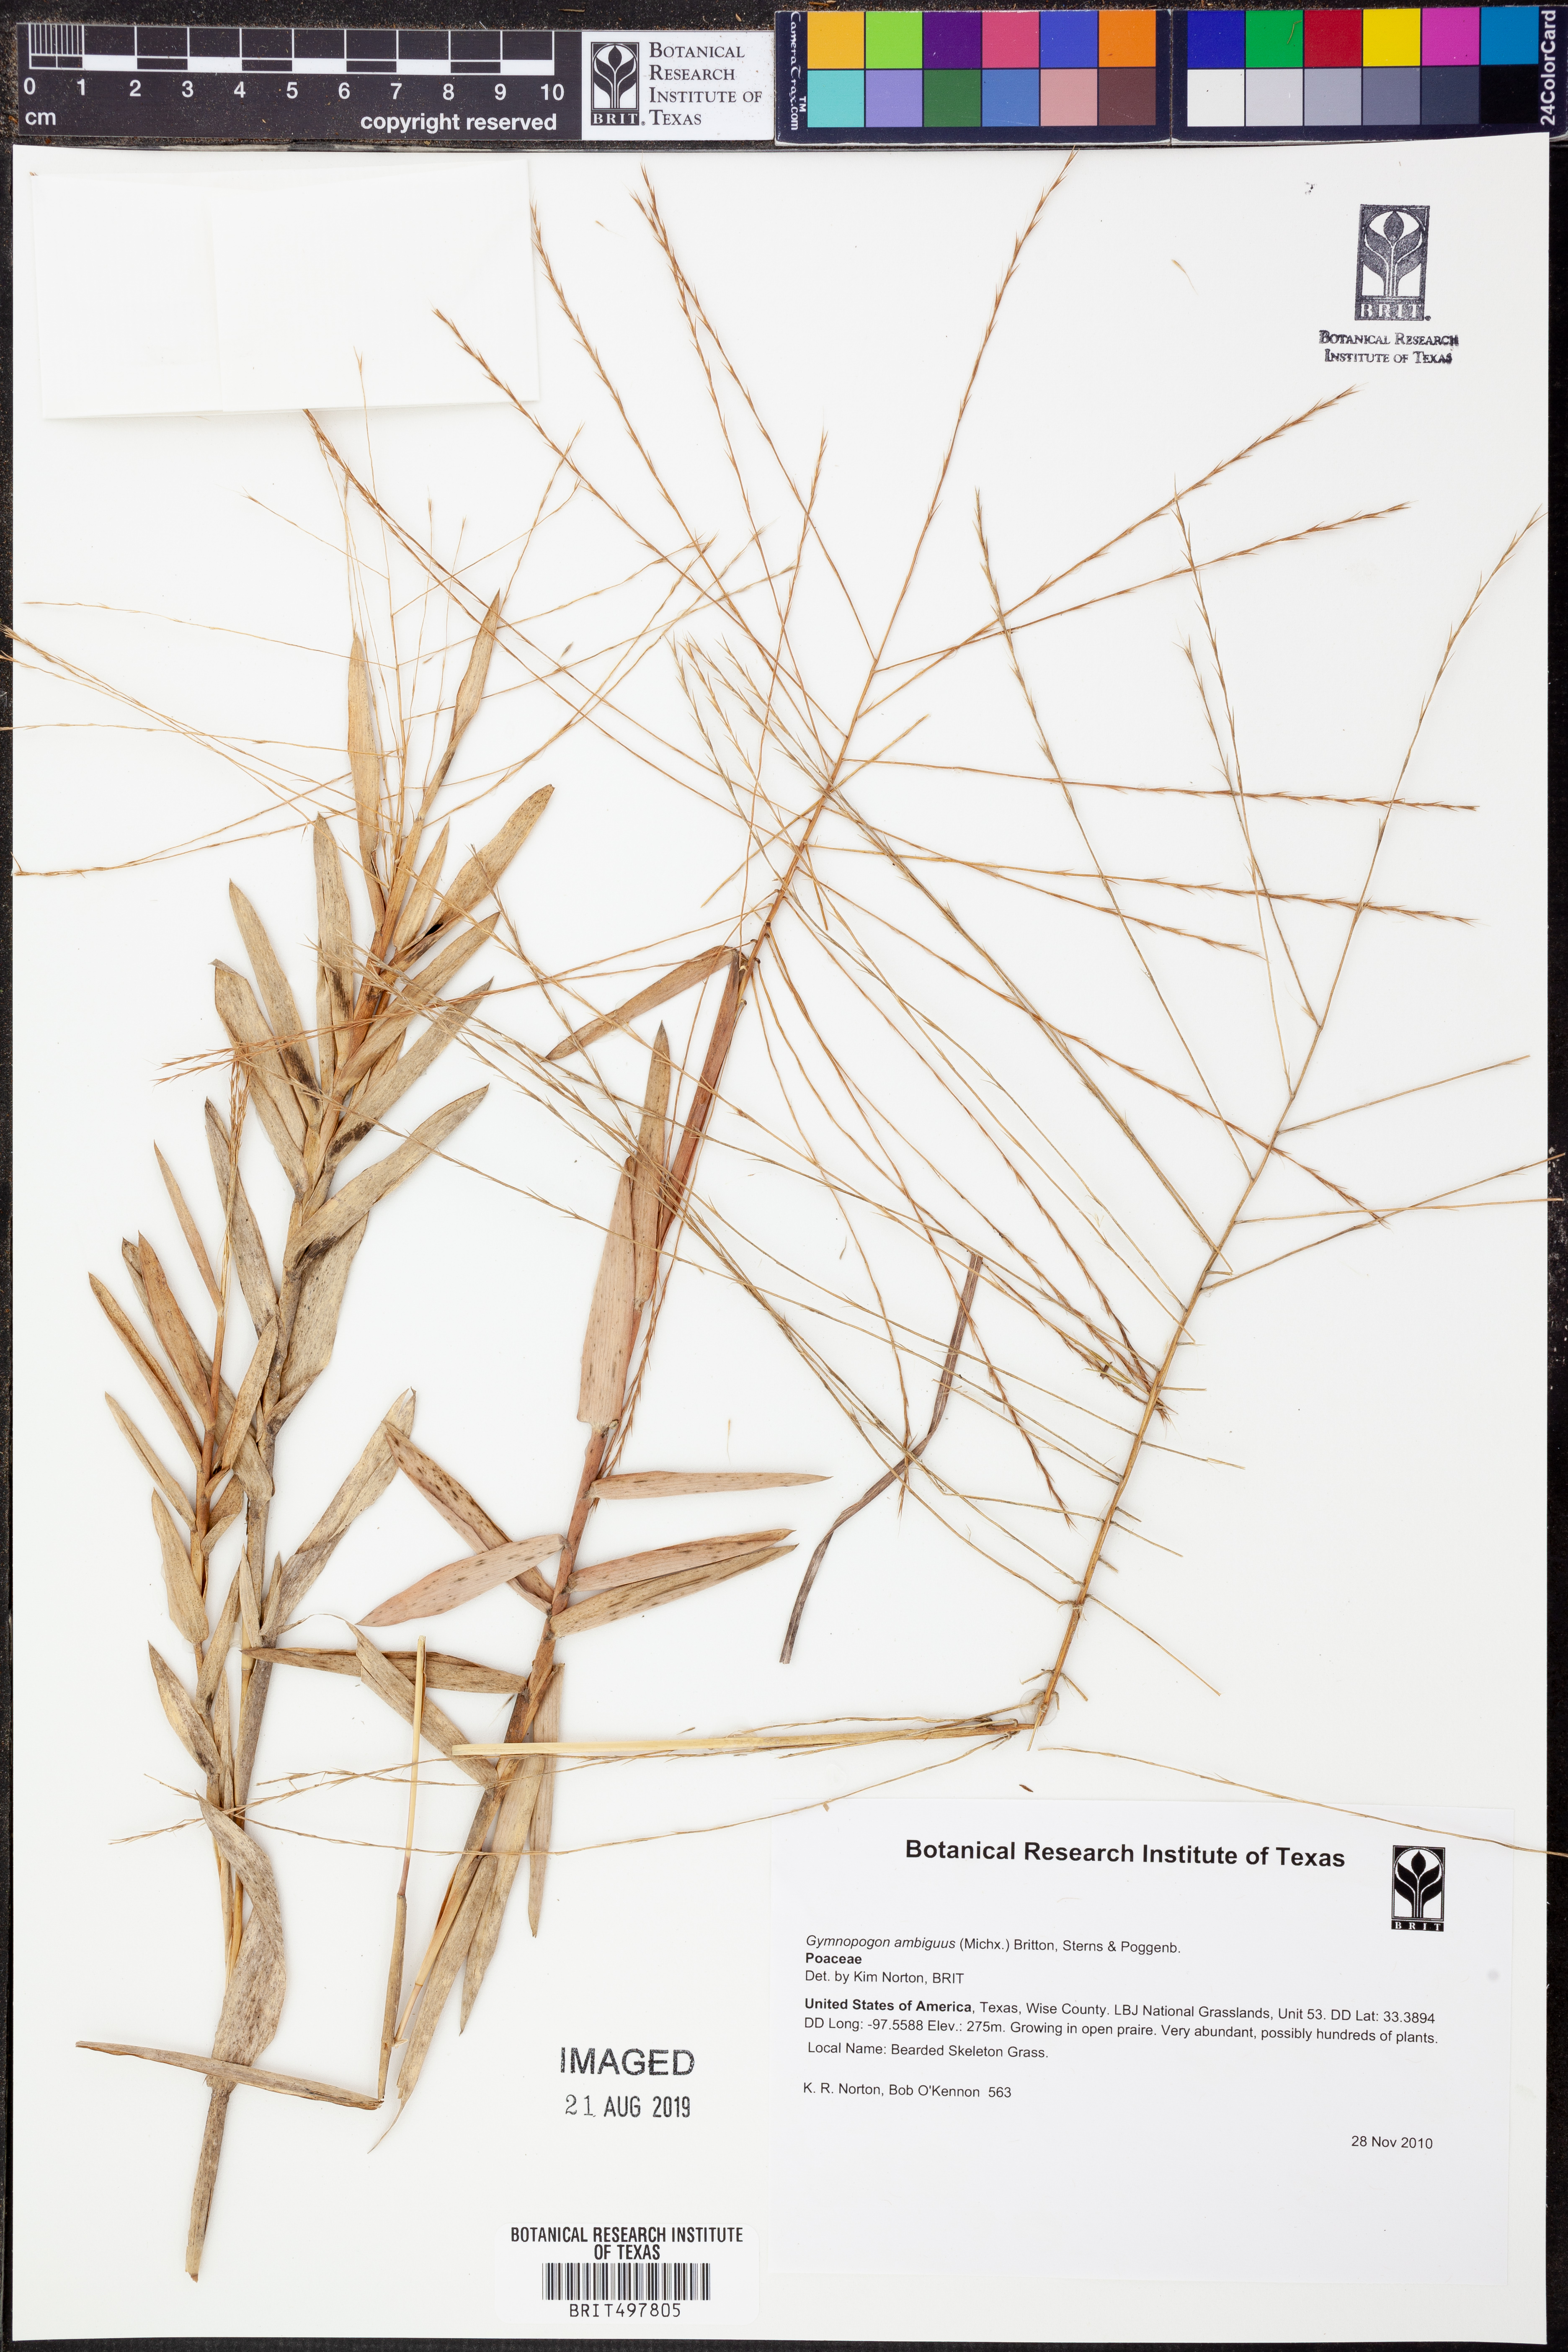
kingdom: Plantae
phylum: Tracheophyta
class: Liliopsida
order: Poales
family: Poaceae
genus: Gymnopogon
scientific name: Gymnopogon ambiguus
